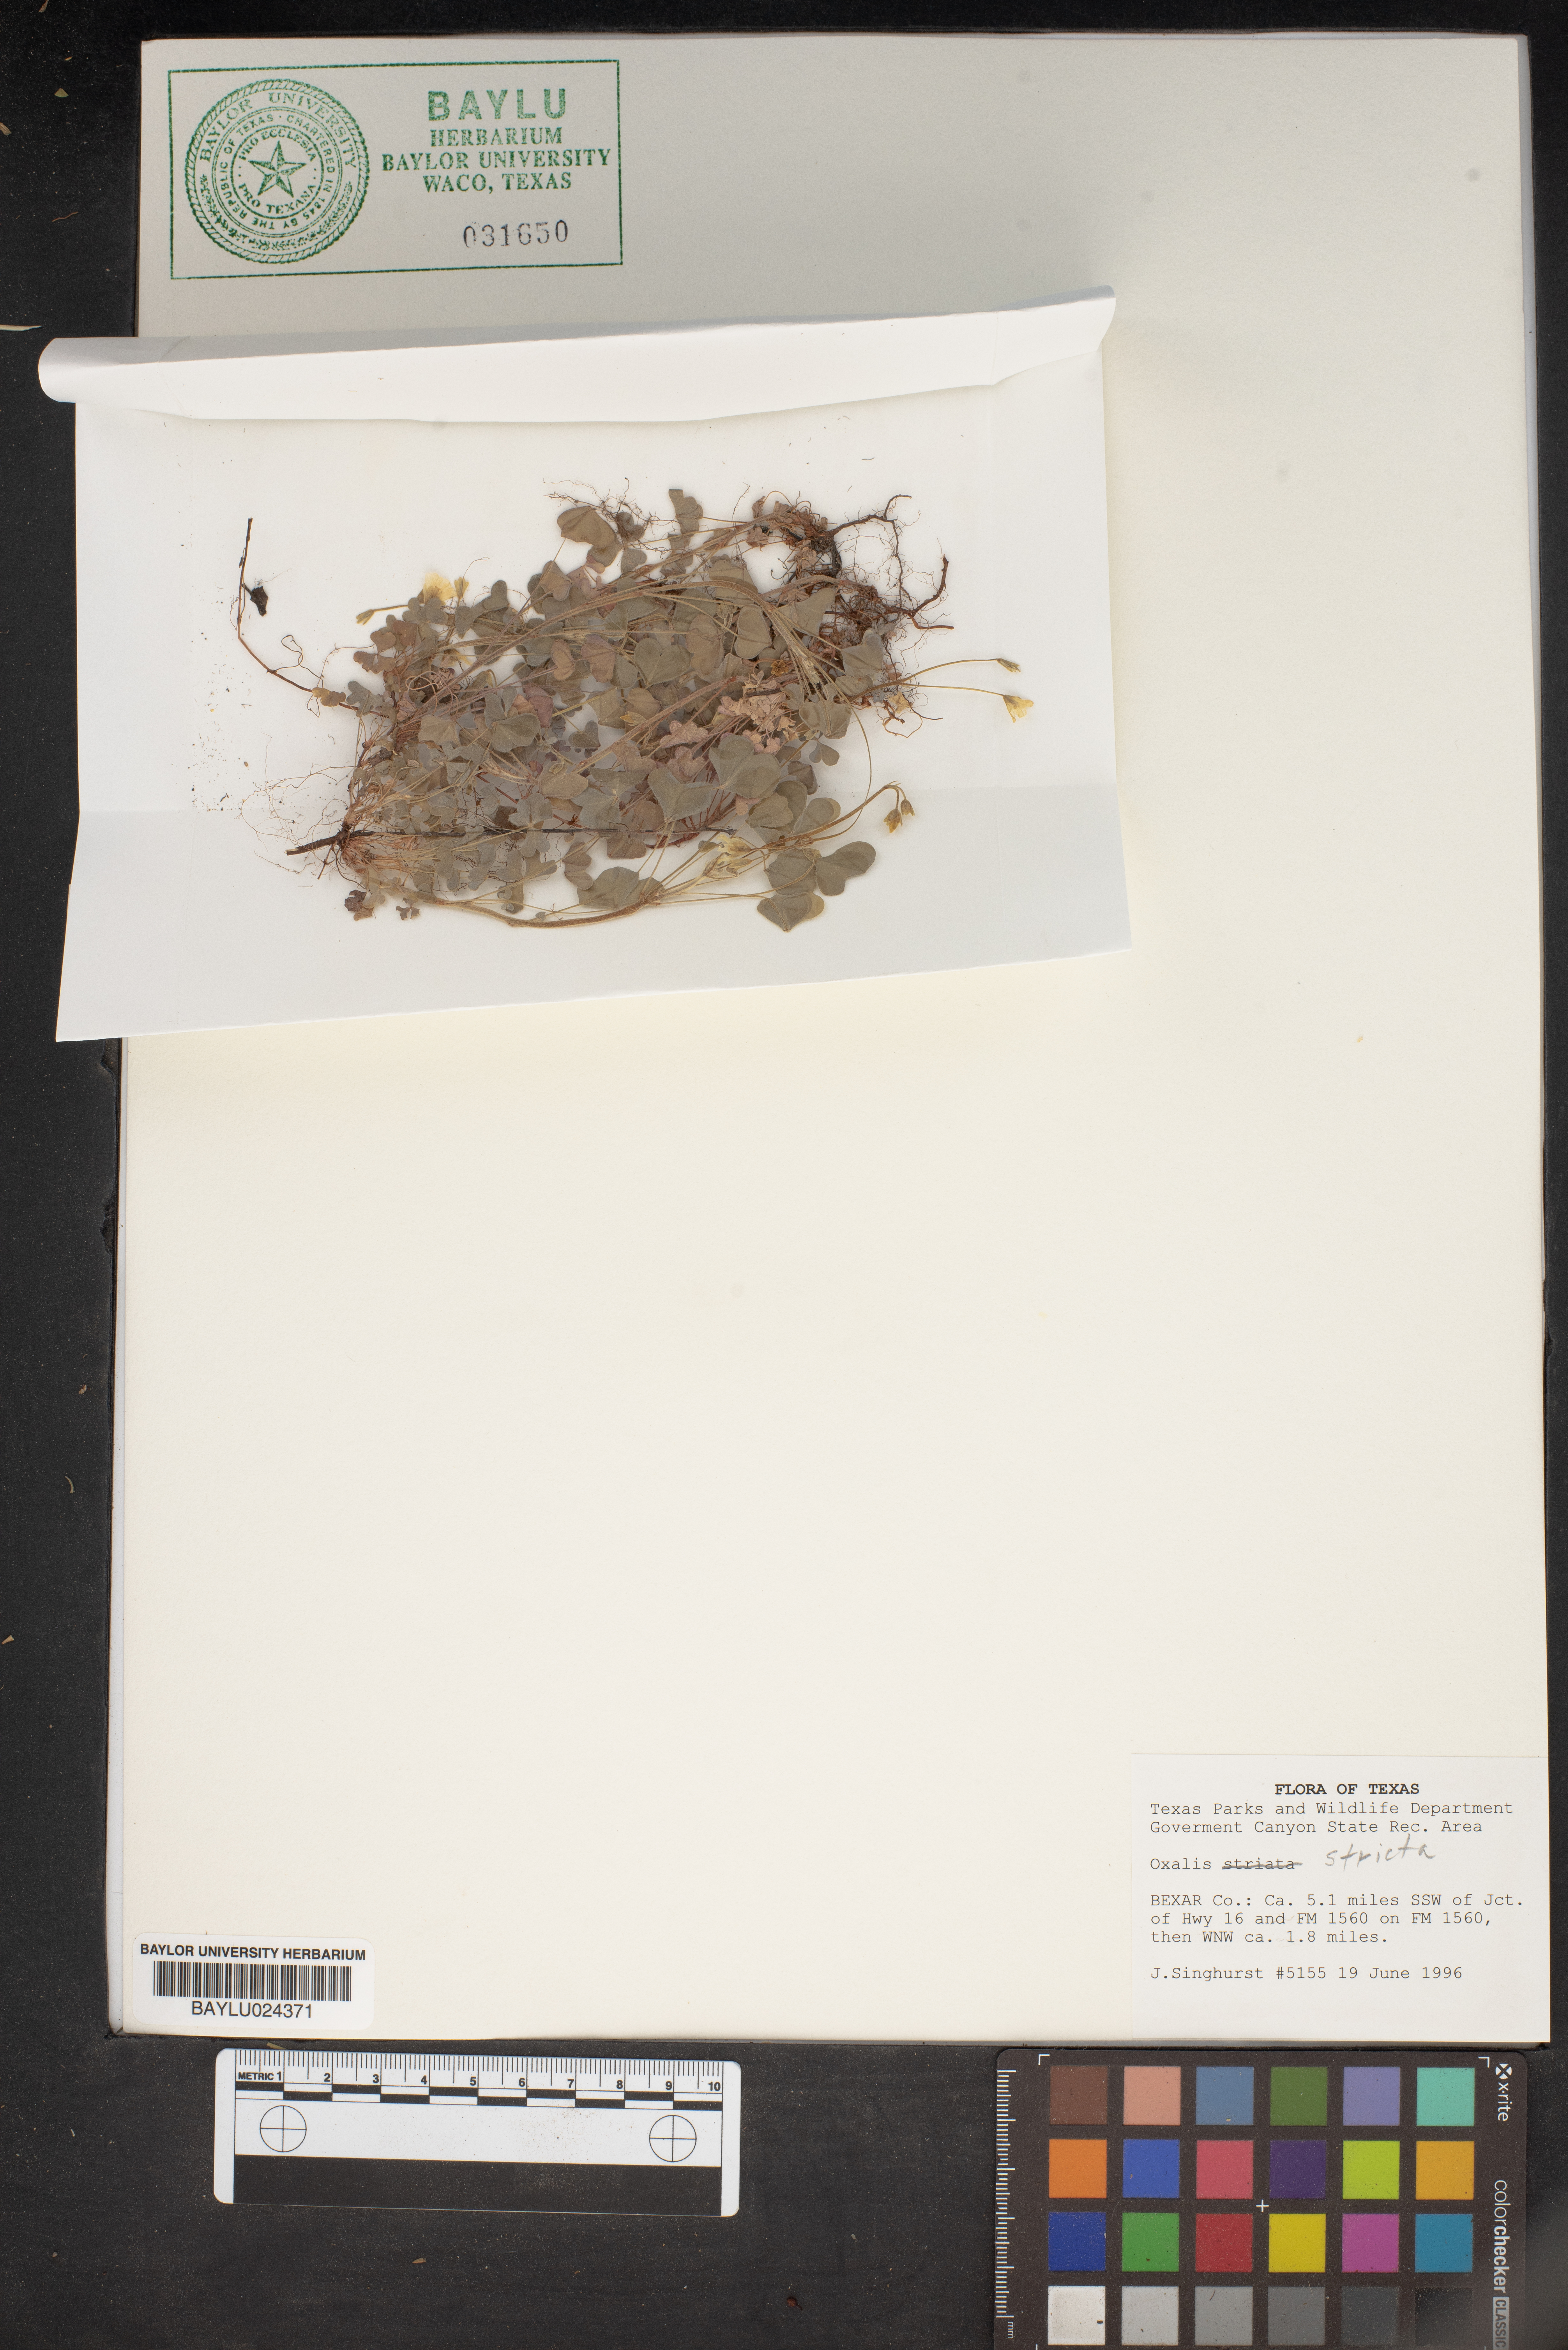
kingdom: Plantae
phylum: Tracheophyta
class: Magnoliopsida
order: Oxalidales
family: Oxalidaceae
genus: Oxalis
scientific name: Oxalis stricta
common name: Upright yellow-sorrel
